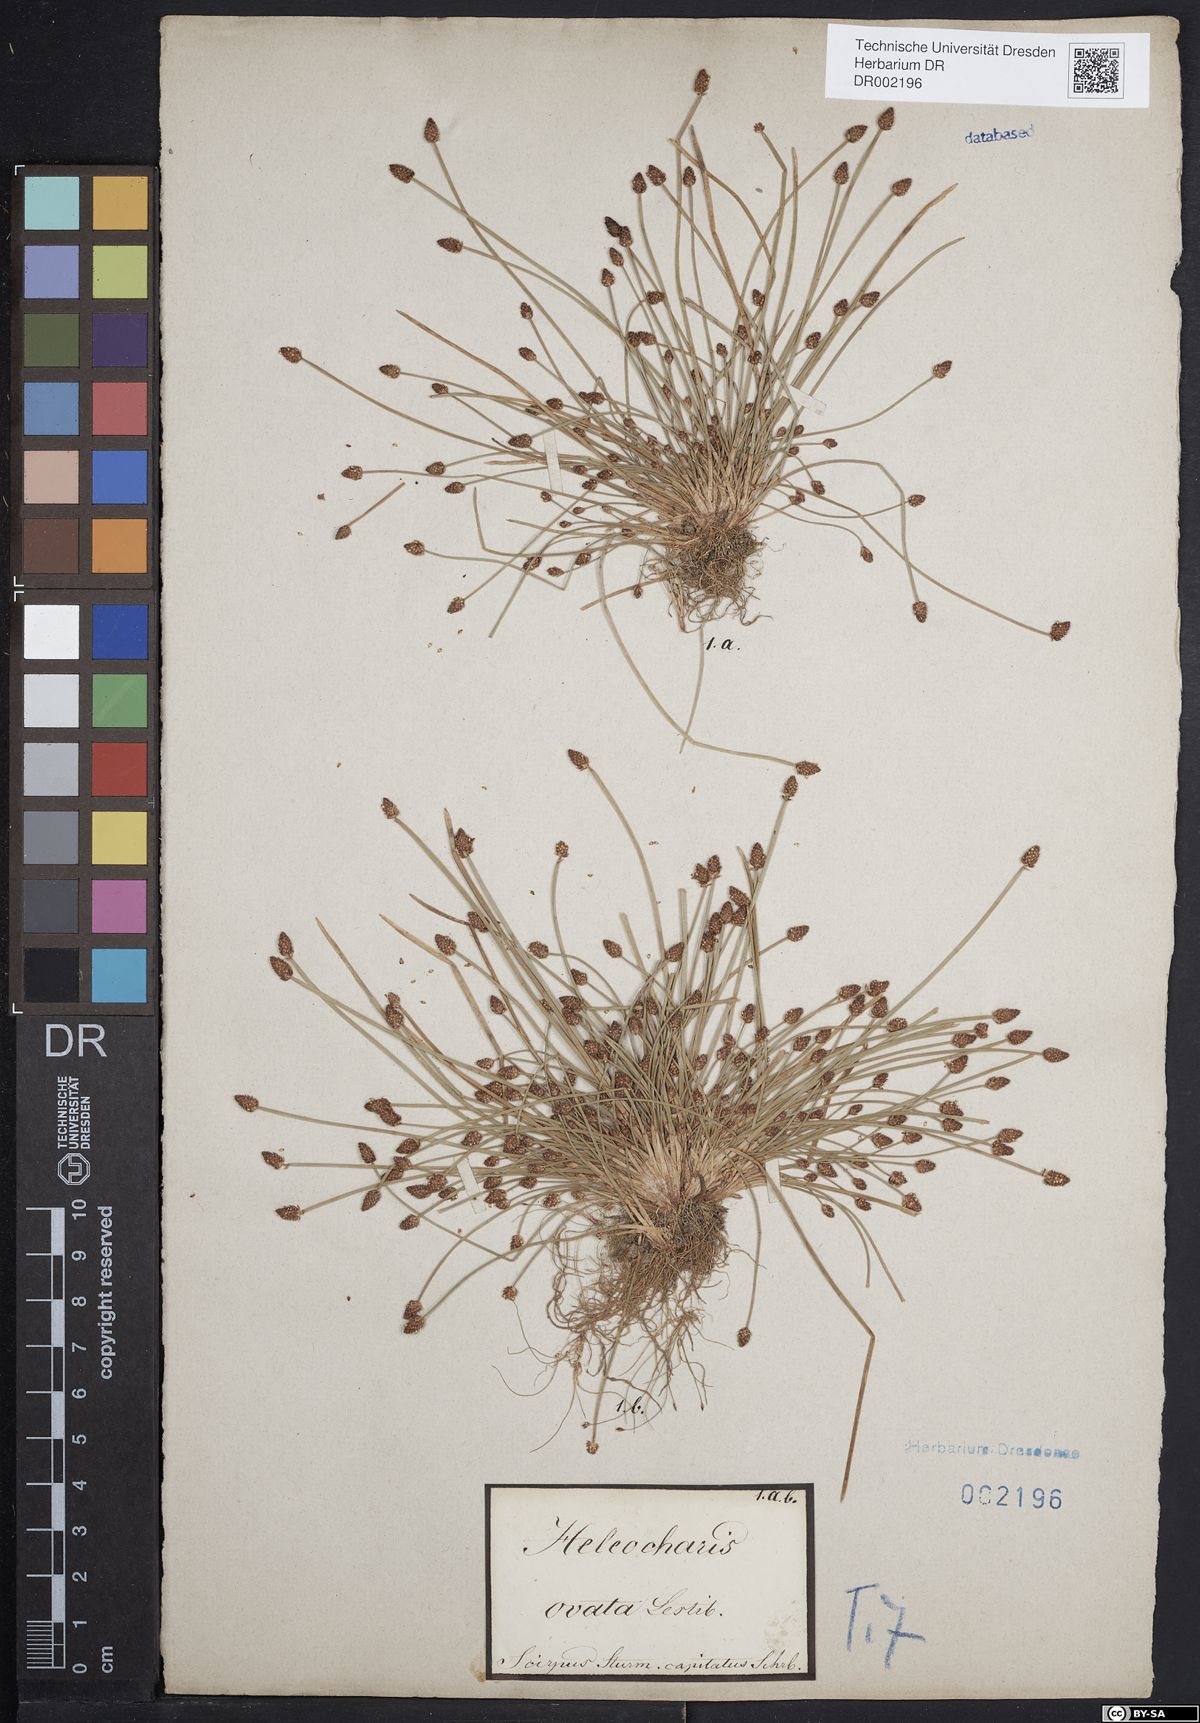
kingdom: Plantae
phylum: Tracheophyta
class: Liliopsida
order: Poales
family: Cyperaceae
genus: Eleocharis
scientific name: Eleocharis ovata
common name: Oval spike-rush
